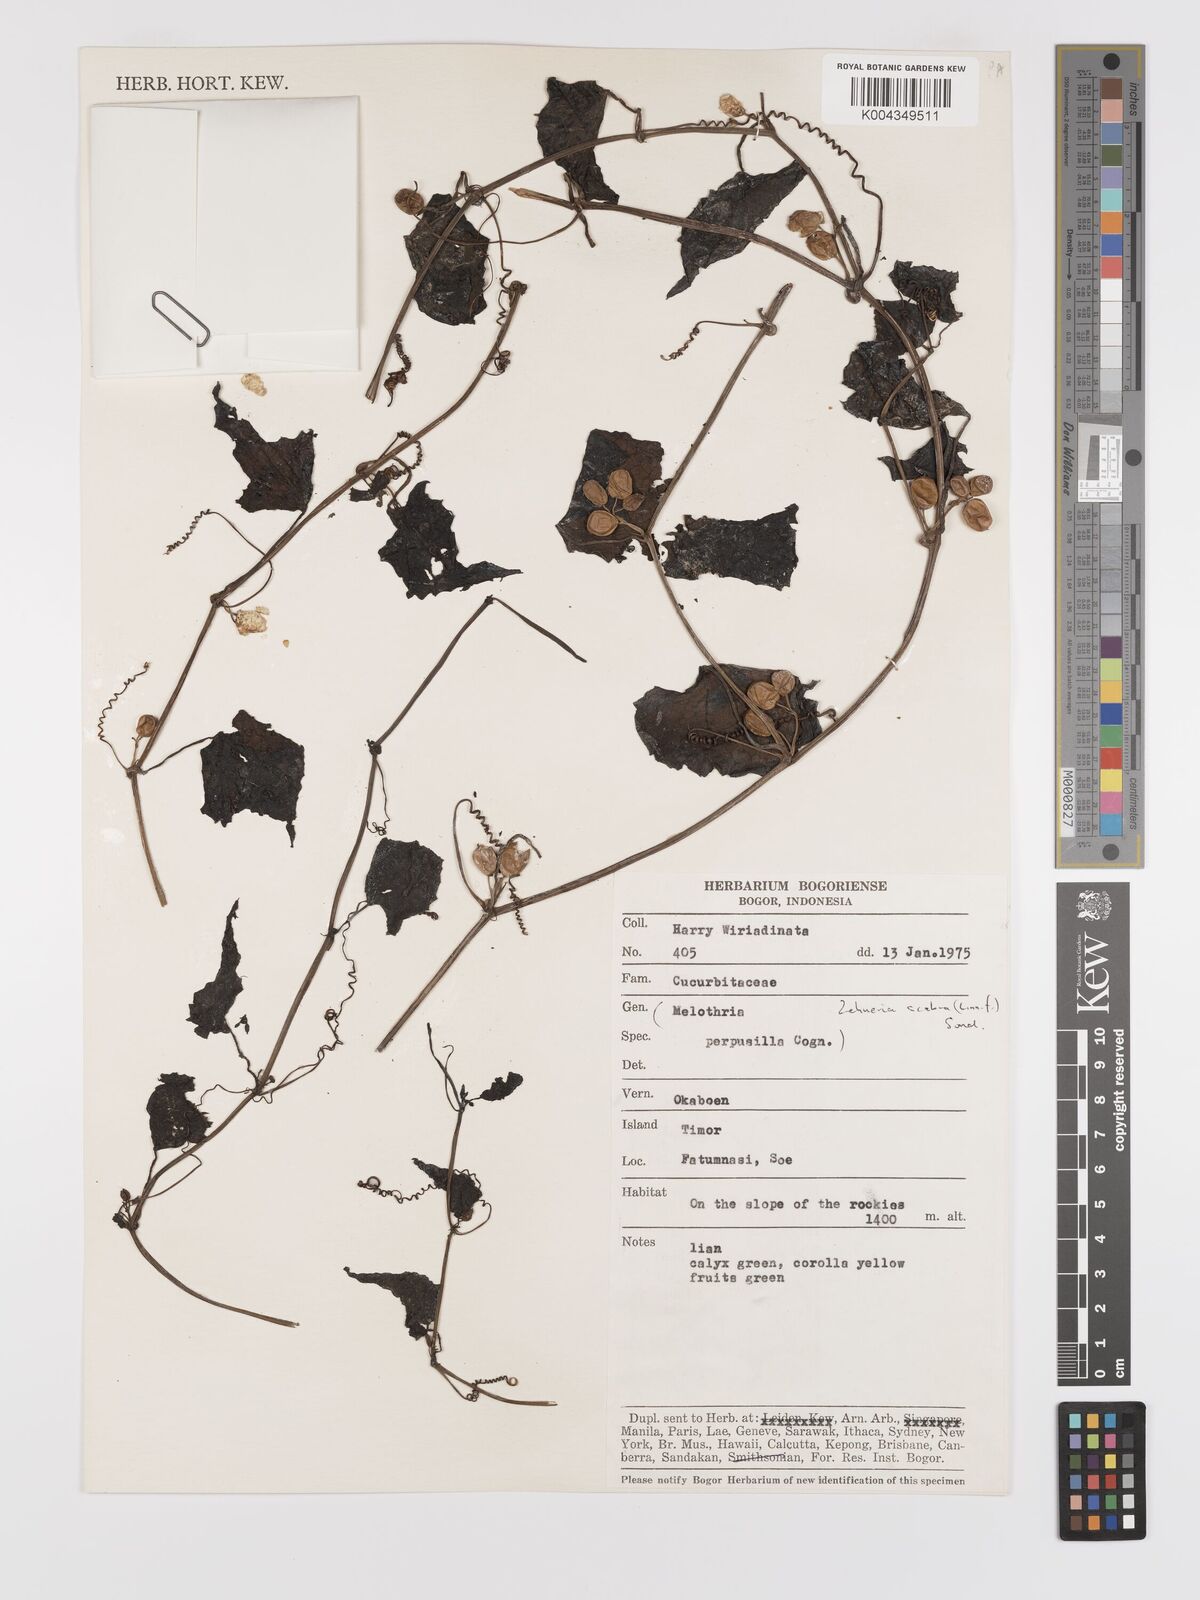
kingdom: Plantae
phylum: Tracheophyta
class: Magnoliopsida
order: Cucurbitales
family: Cucurbitaceae
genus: Zehneria
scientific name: Zehneria scabra
